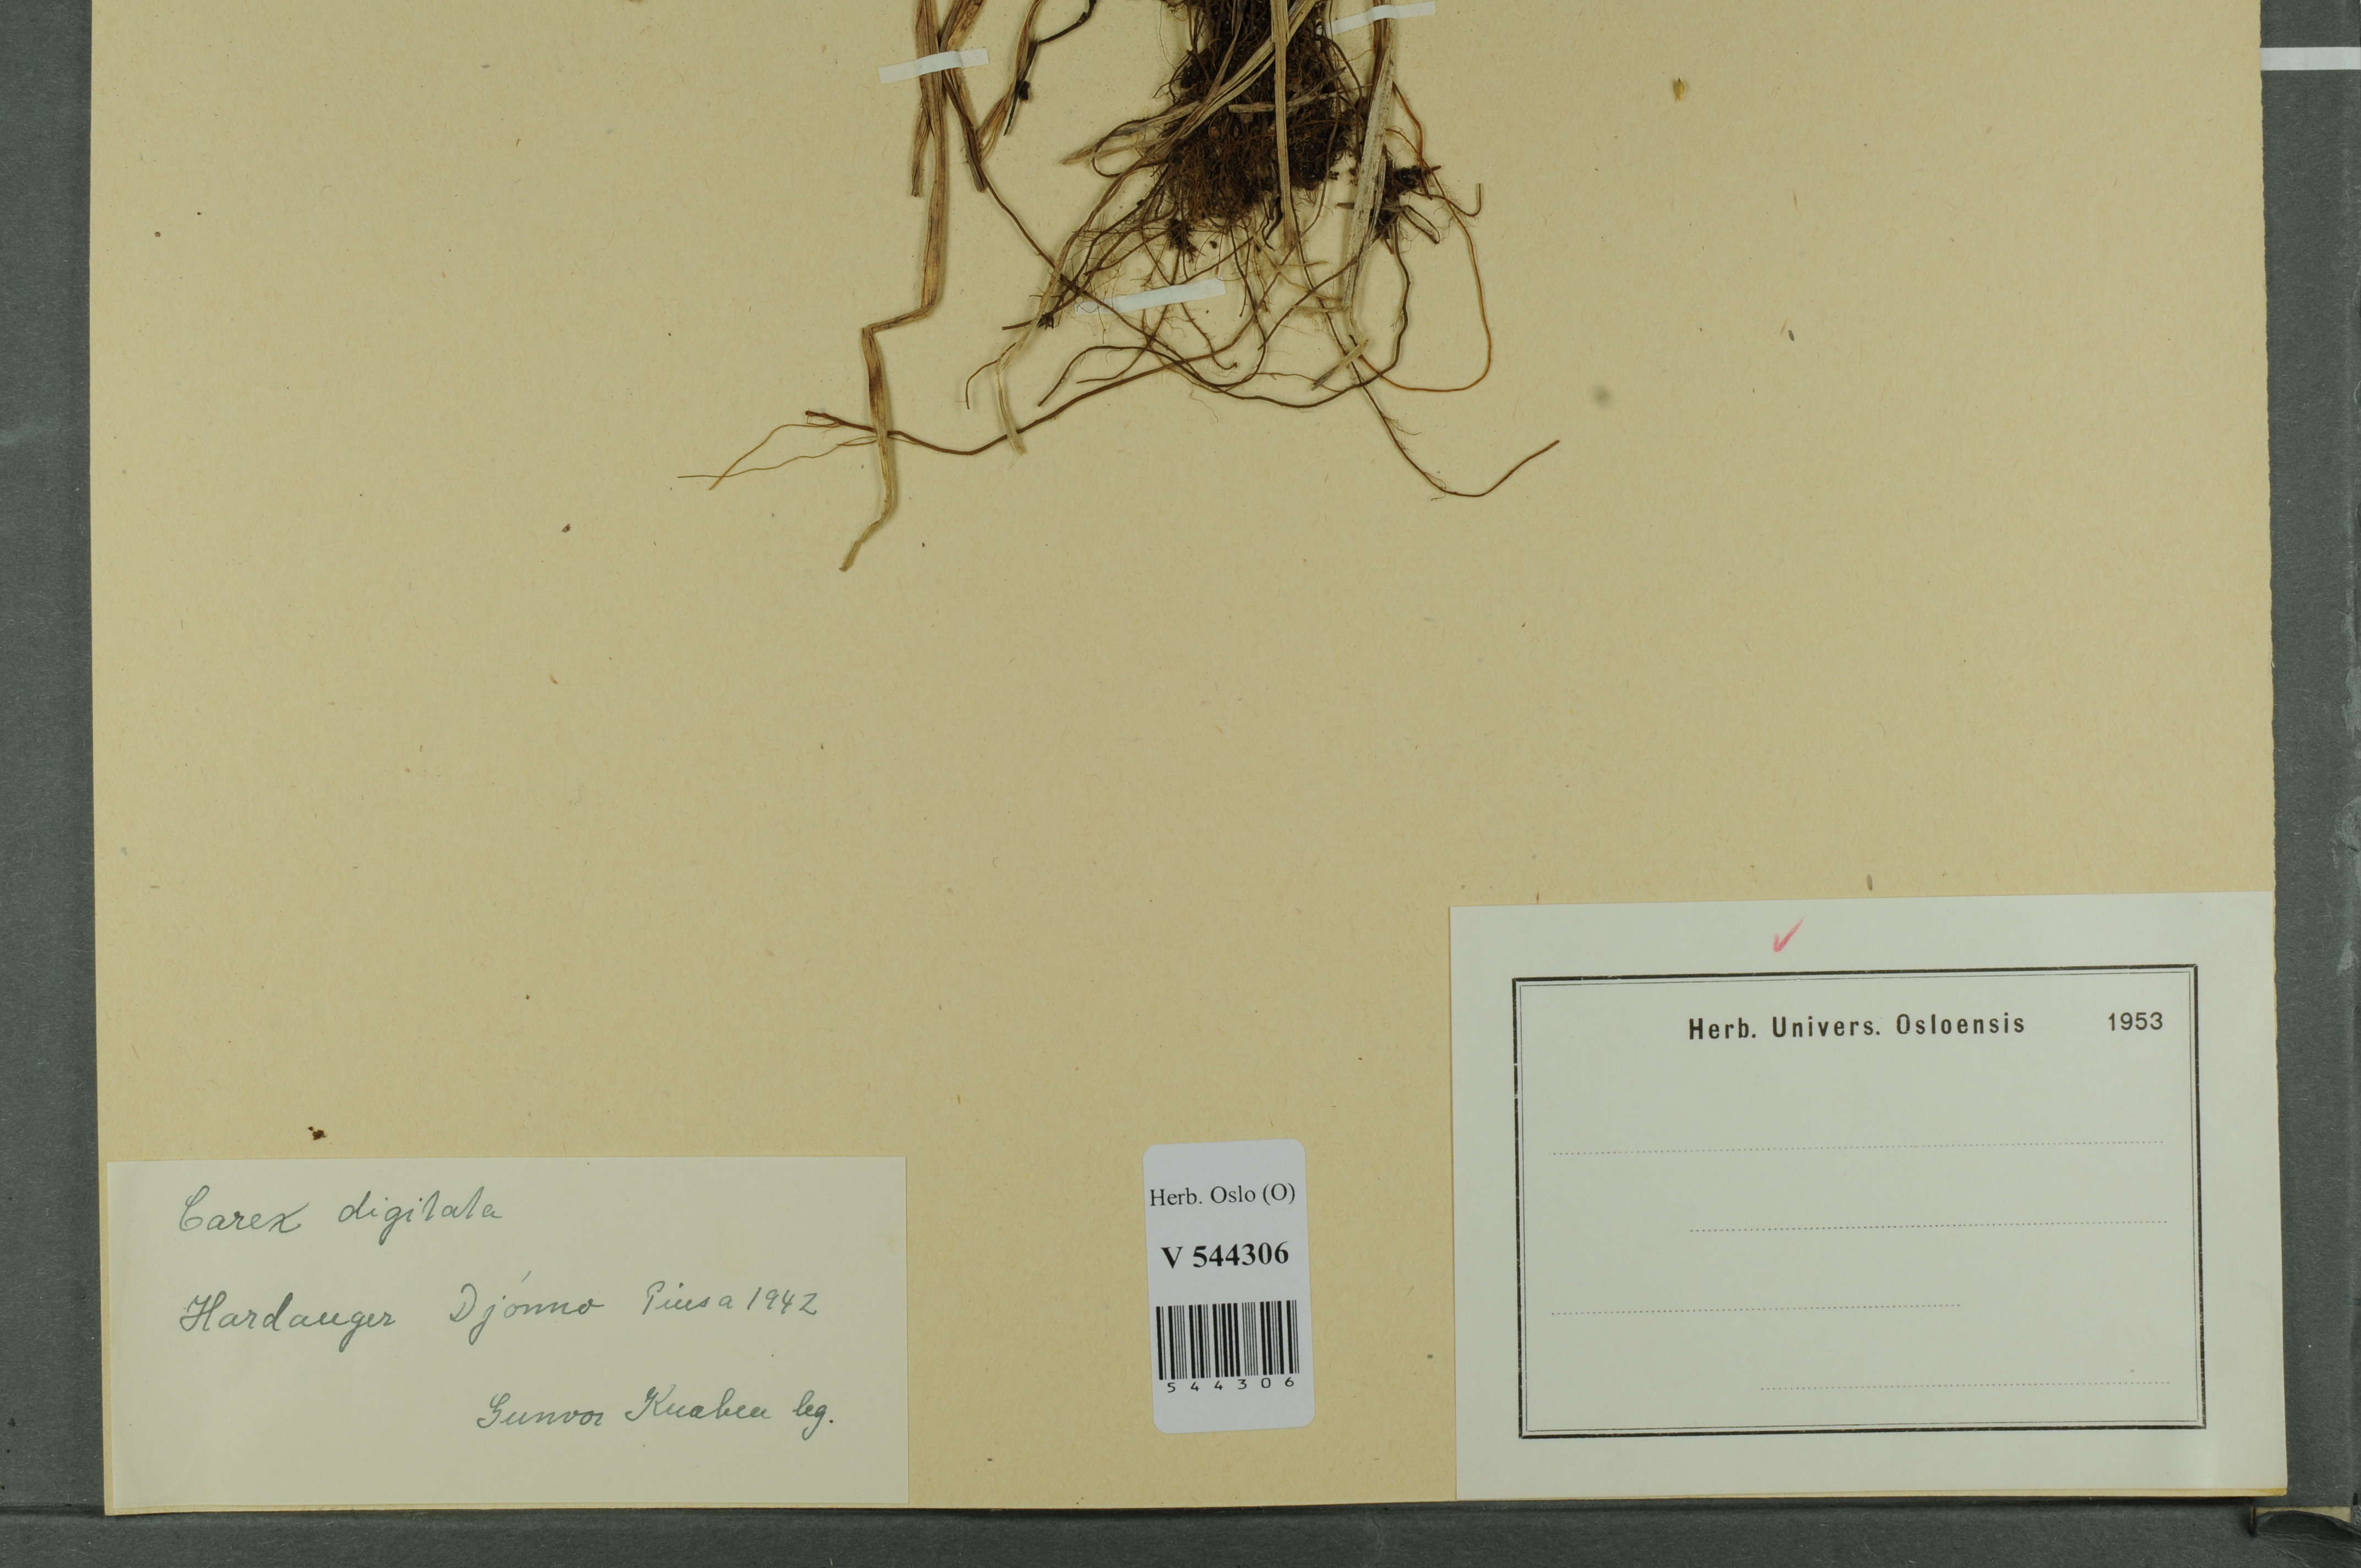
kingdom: Plantae
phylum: Tracheophyta
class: Liliopsida
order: Poales
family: Cyperaceae
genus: Carex
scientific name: Carex digitata
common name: Fingered sedge
